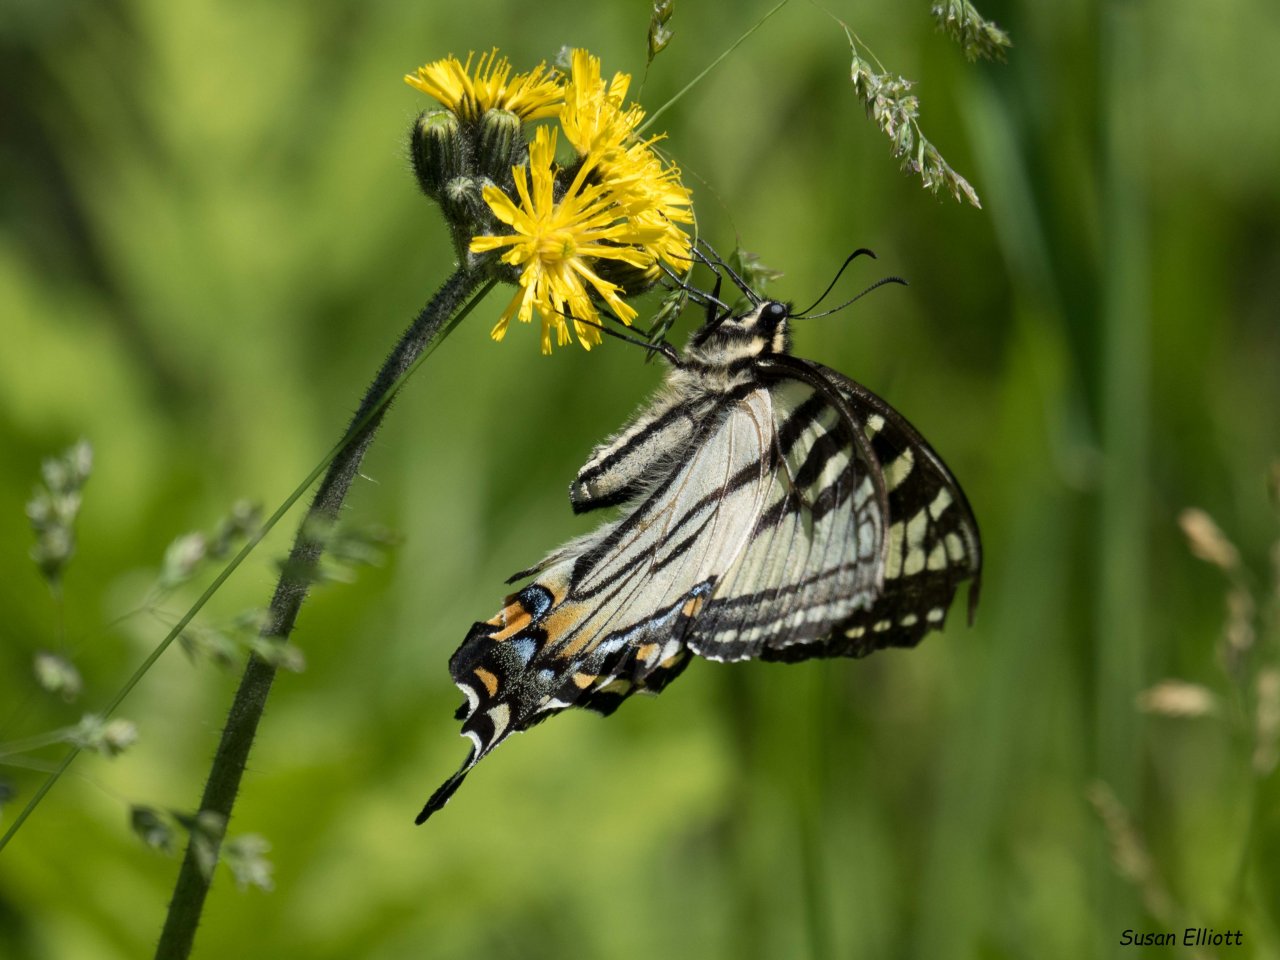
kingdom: Animalia
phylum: Arthropoda
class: Insecta
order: Lepidoptera
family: Papilionidae
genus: Pterourus
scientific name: Pterourus canadensis
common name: Canadian Tiger Swallowtail
